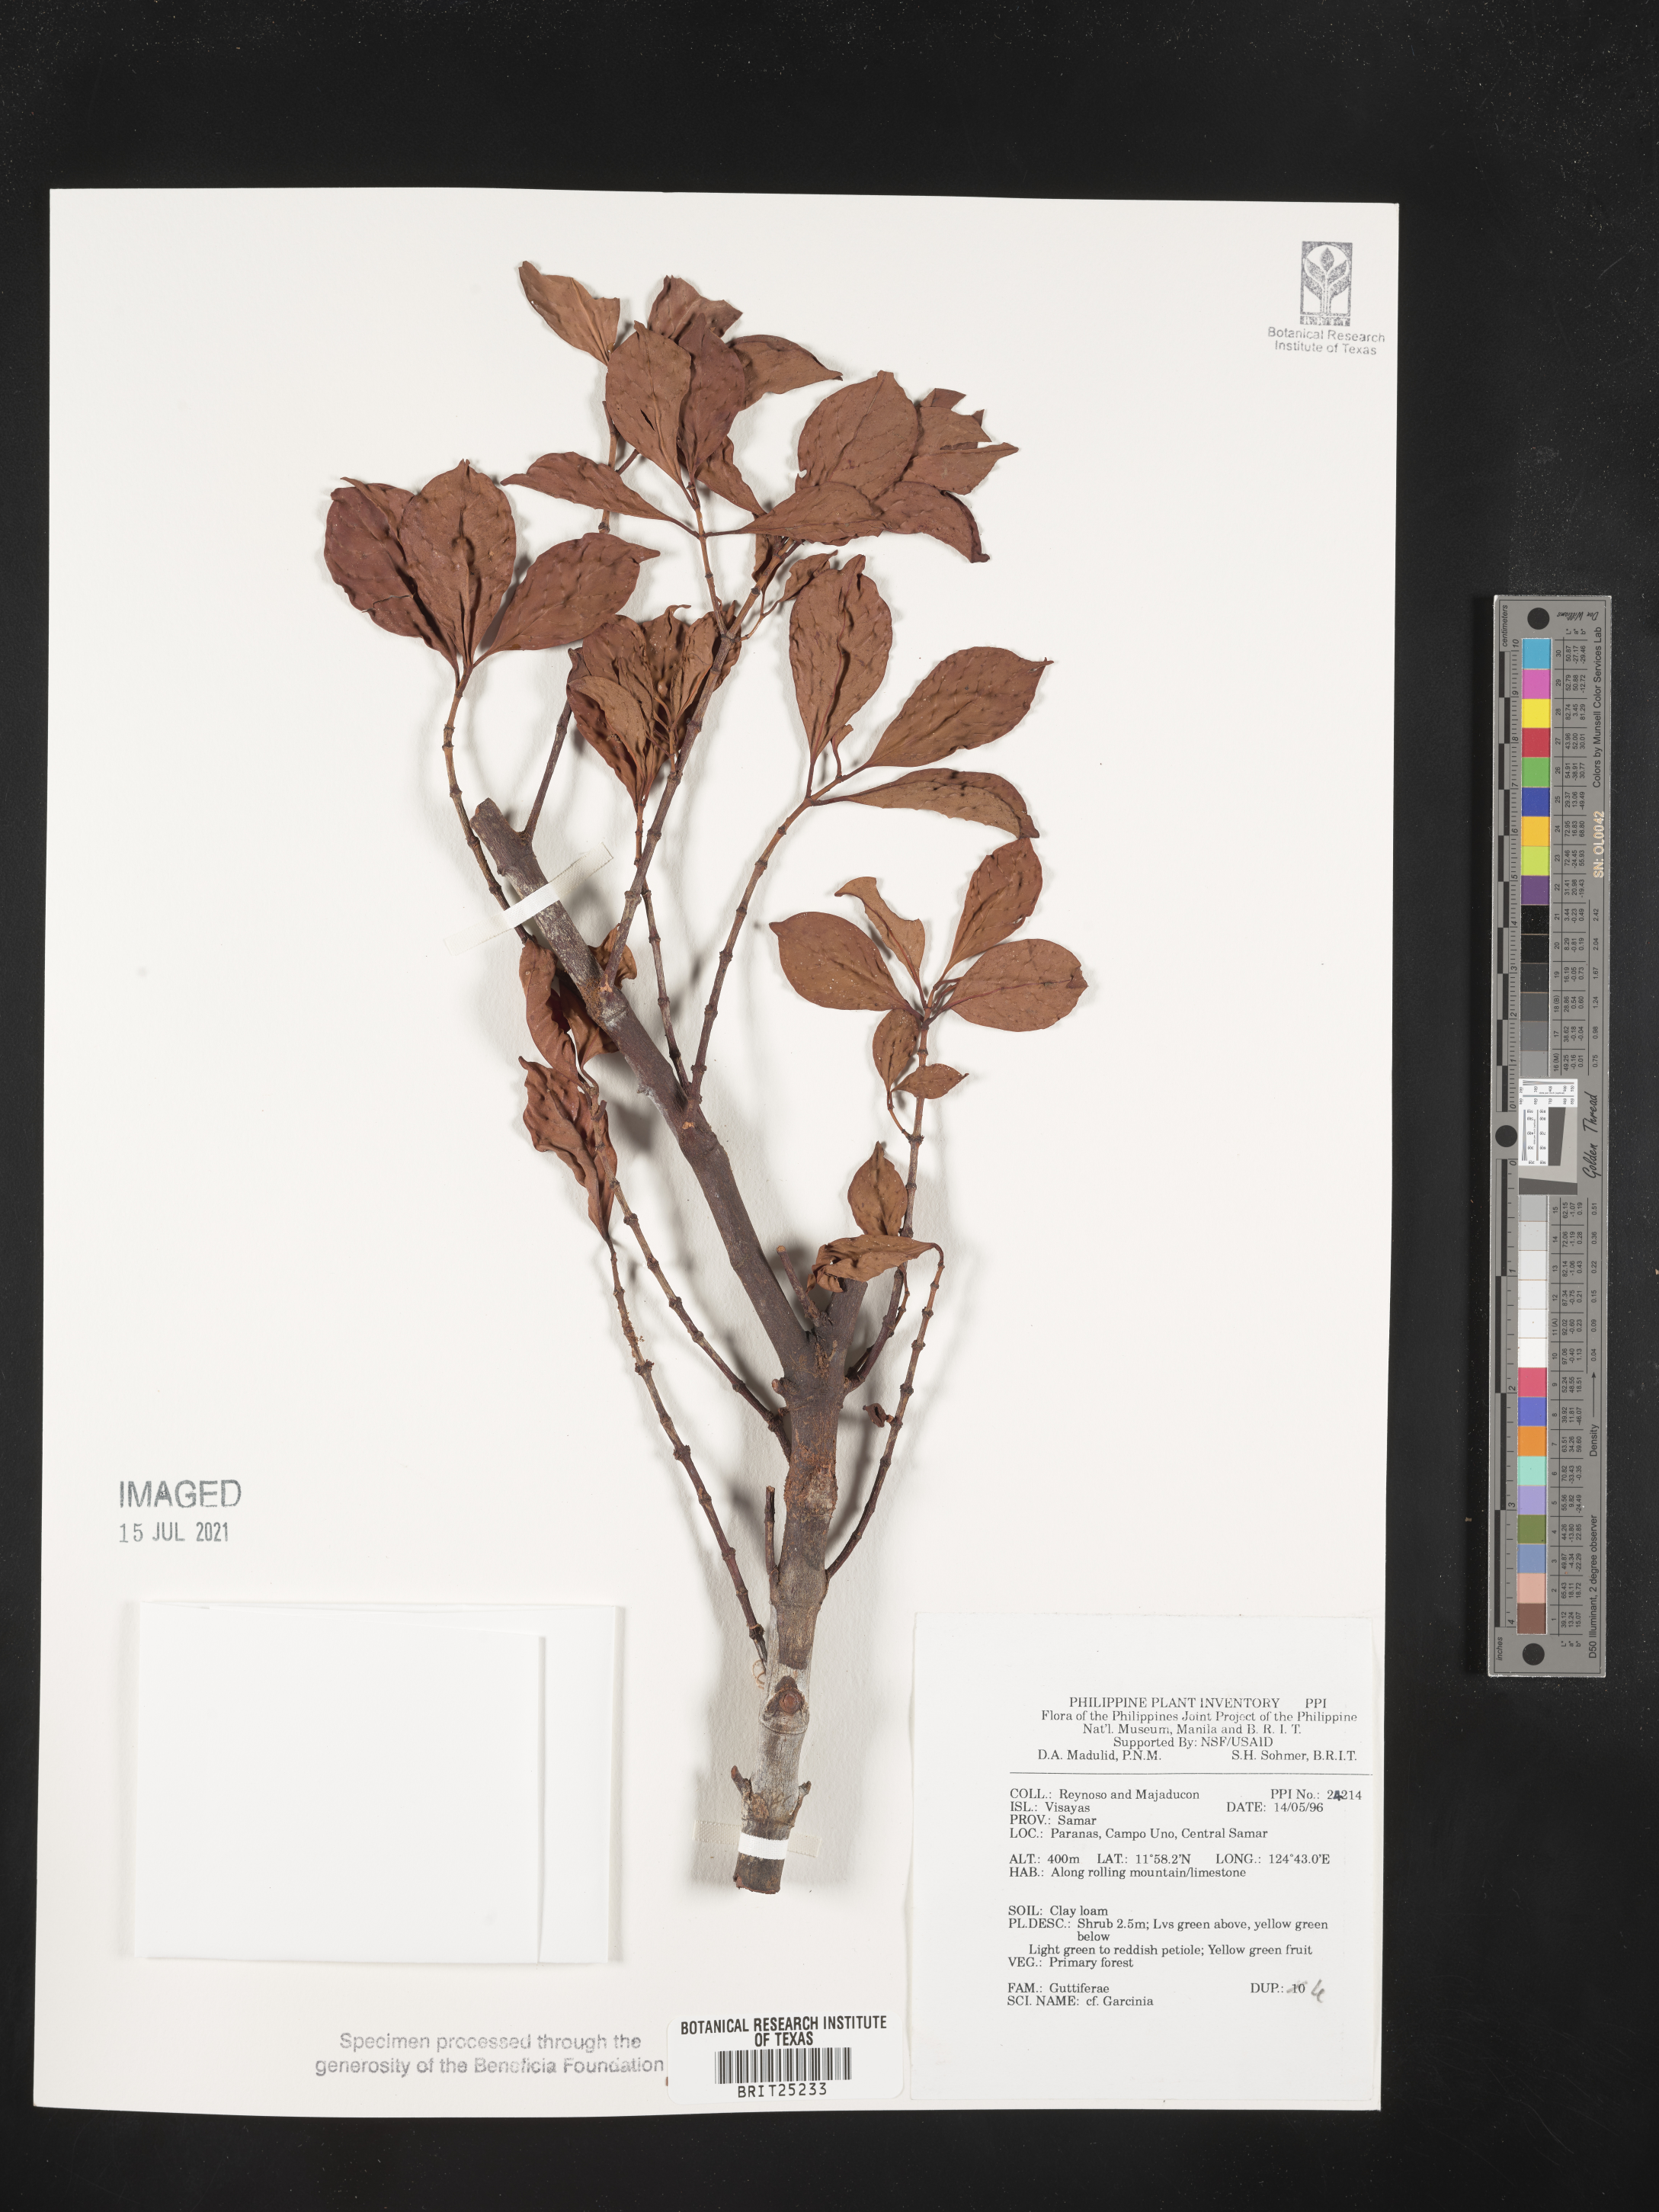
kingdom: Plantae
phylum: Tracheophyta
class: Magnoliopsida
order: Malpighiales
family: Clusiaceae
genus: Garcinia
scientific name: Garcinia
